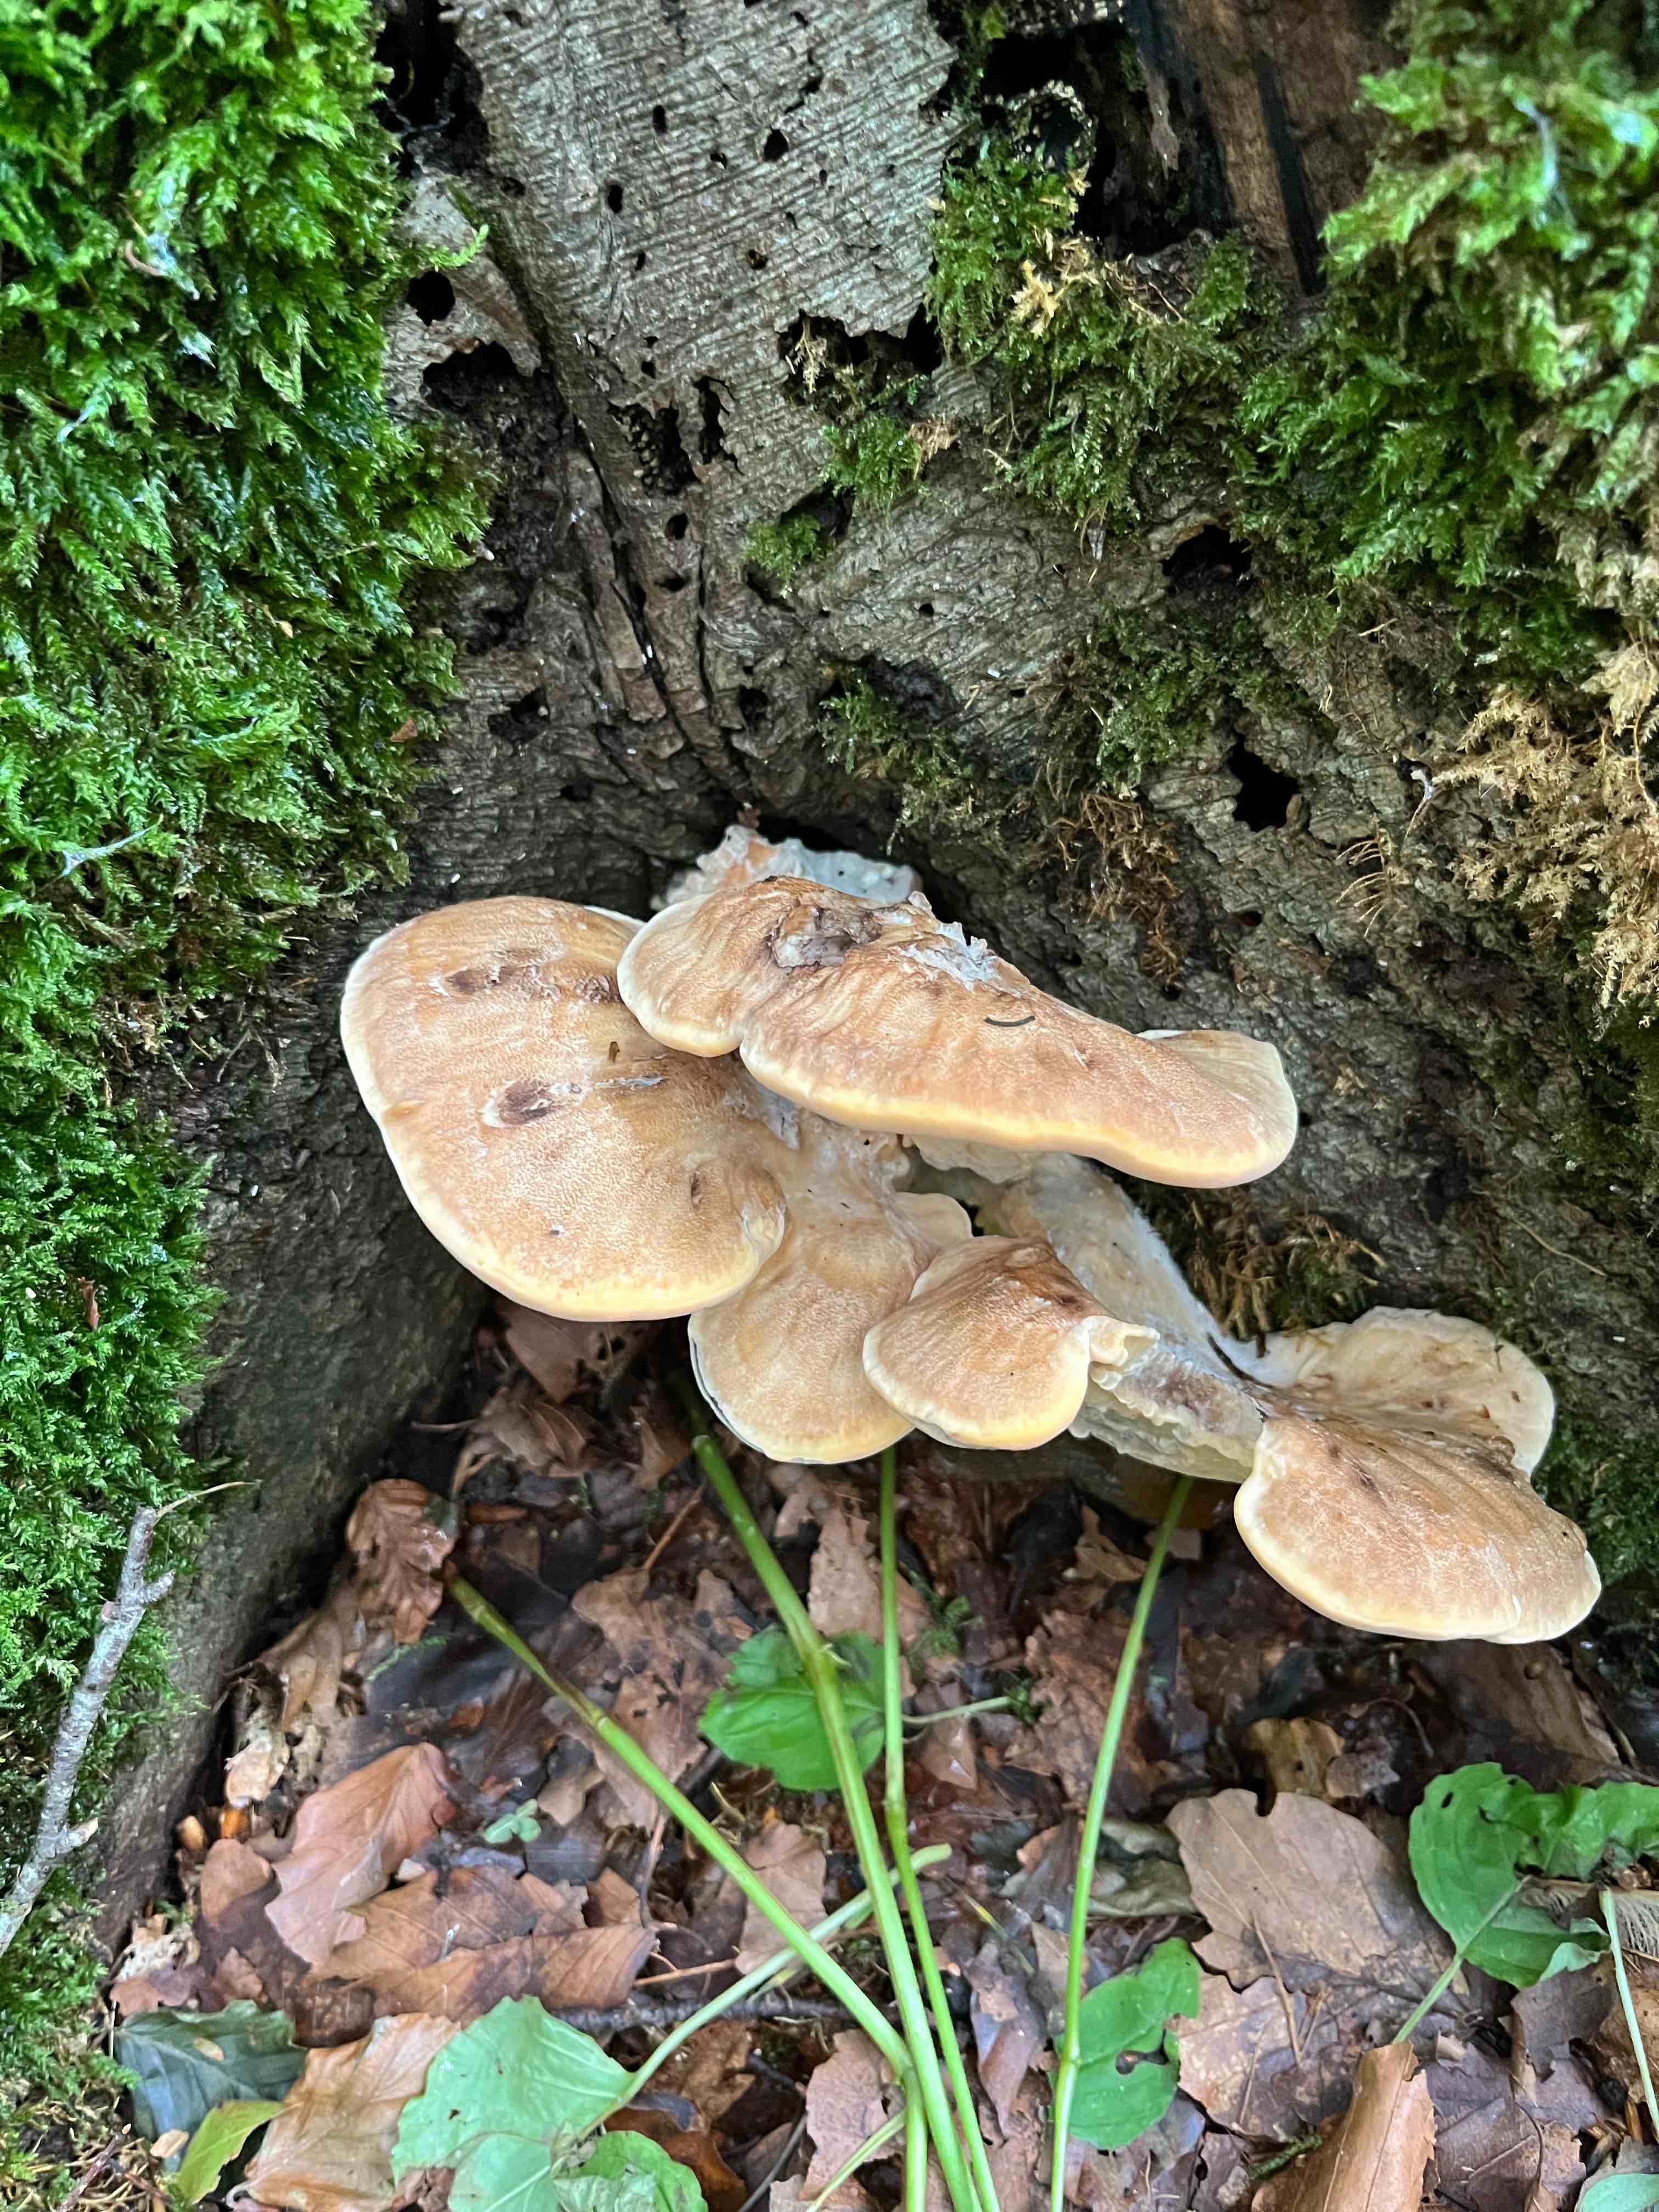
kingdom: Fungi
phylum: Basidiomycota
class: Agaricomycetes
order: Polyporales
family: Meripilaceae
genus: Meripilus
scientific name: Meripilus giganteus
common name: kæmpeporesvamp
